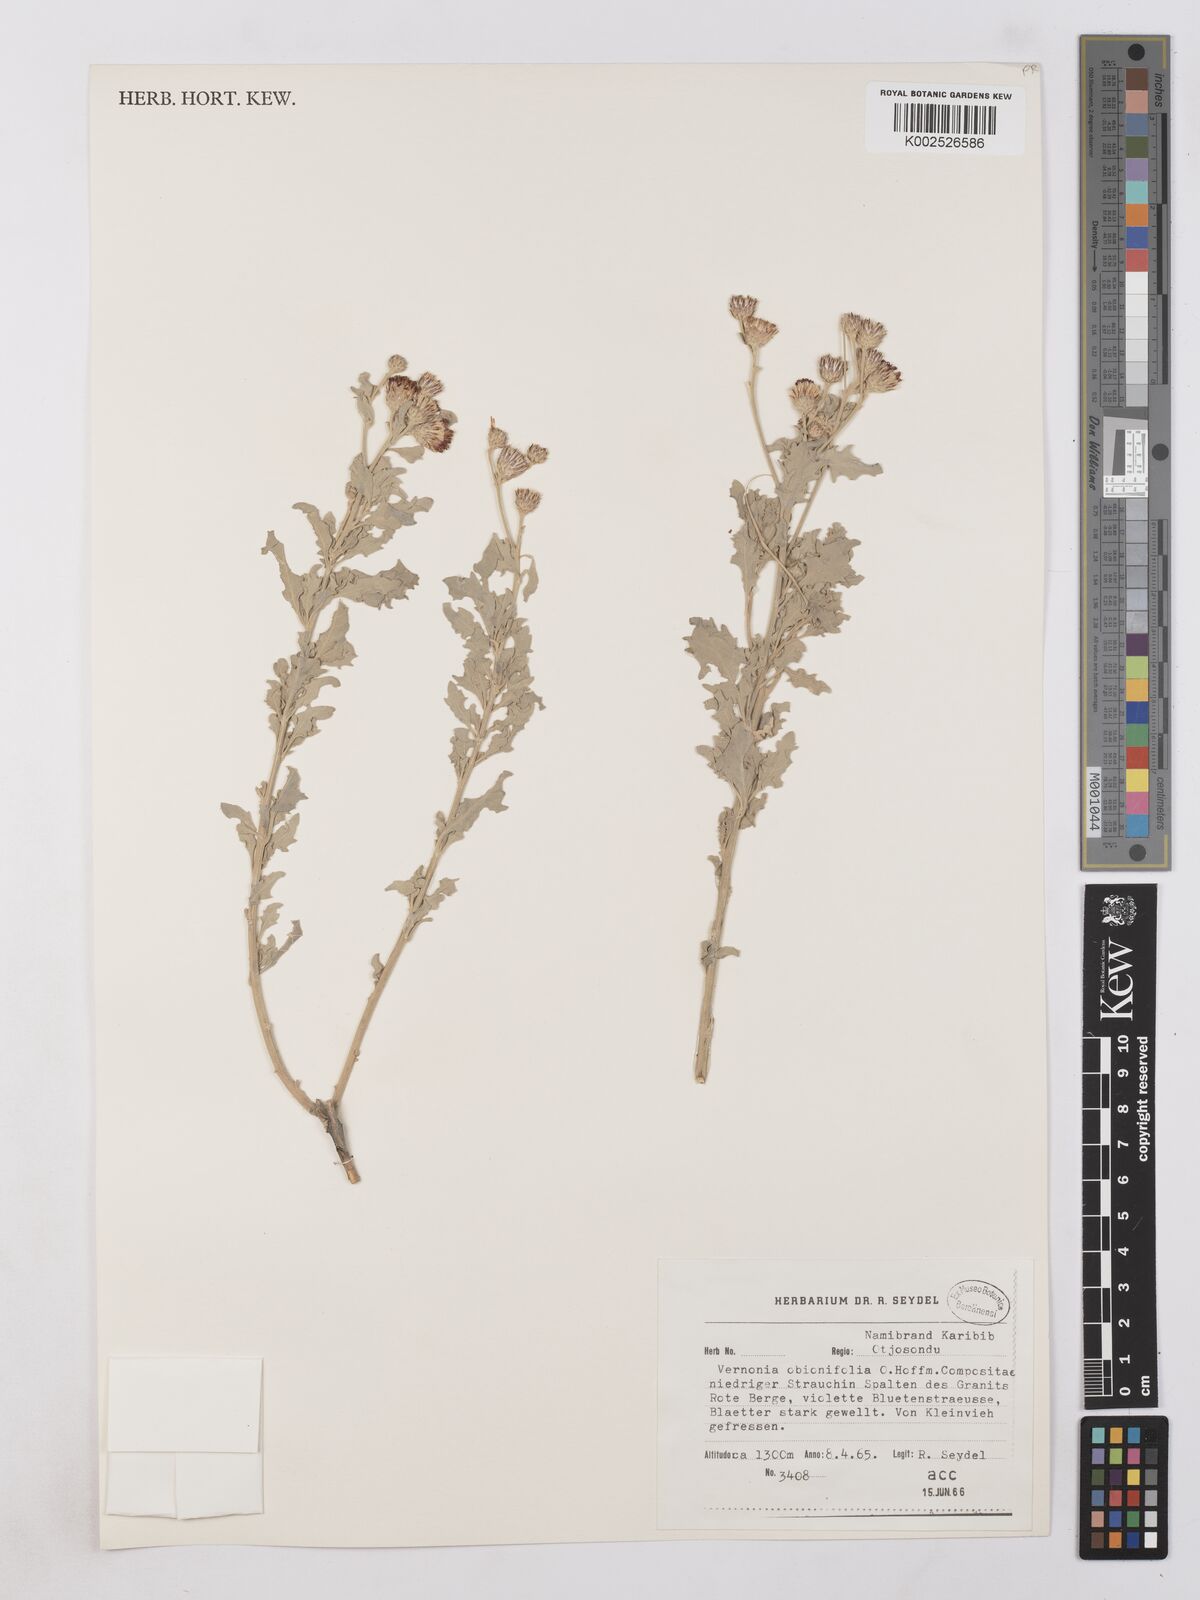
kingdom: Plantae
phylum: Tracheophyta
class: Magnoliopsida
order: Asterales
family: Asteraceae
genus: Namibithamnus
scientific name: Namibithamnus obionifolius
